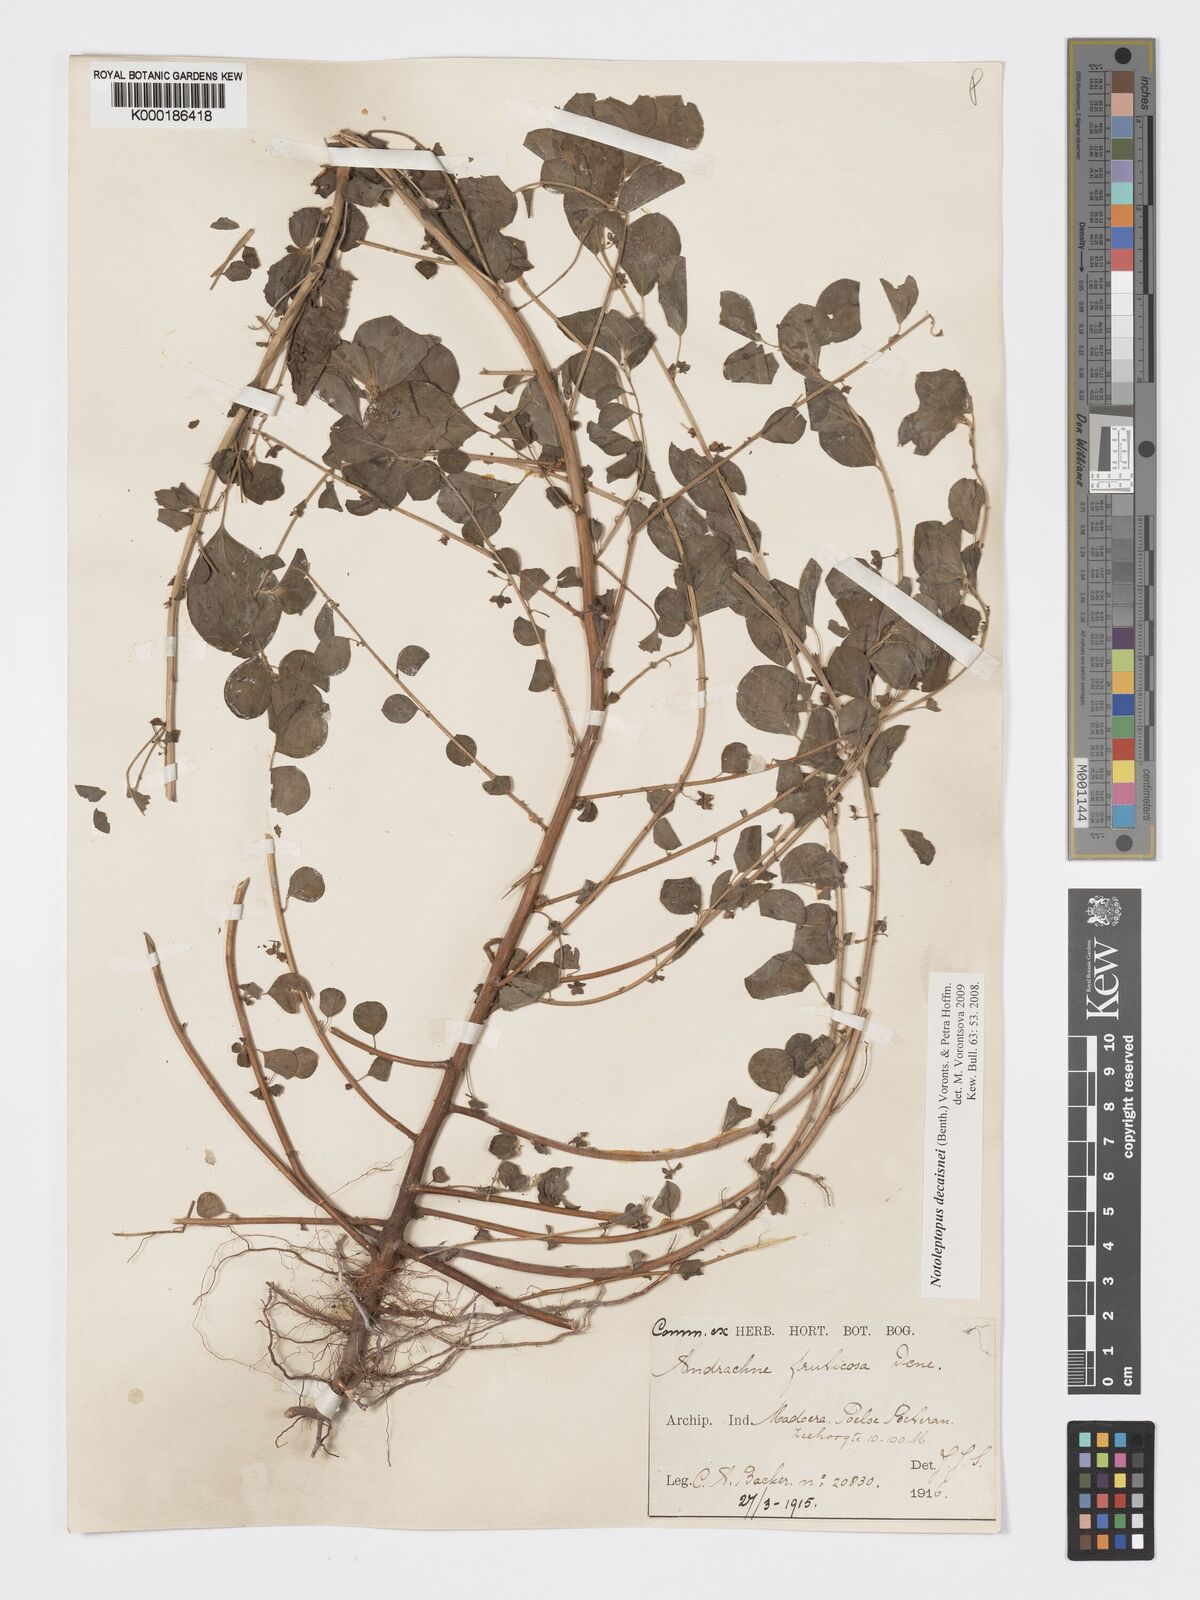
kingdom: Plantae
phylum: Tracheophyta
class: Magnoliopsida
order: Malpighiales
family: Phyllanthaceae
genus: Andrachne
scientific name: Andrachne
